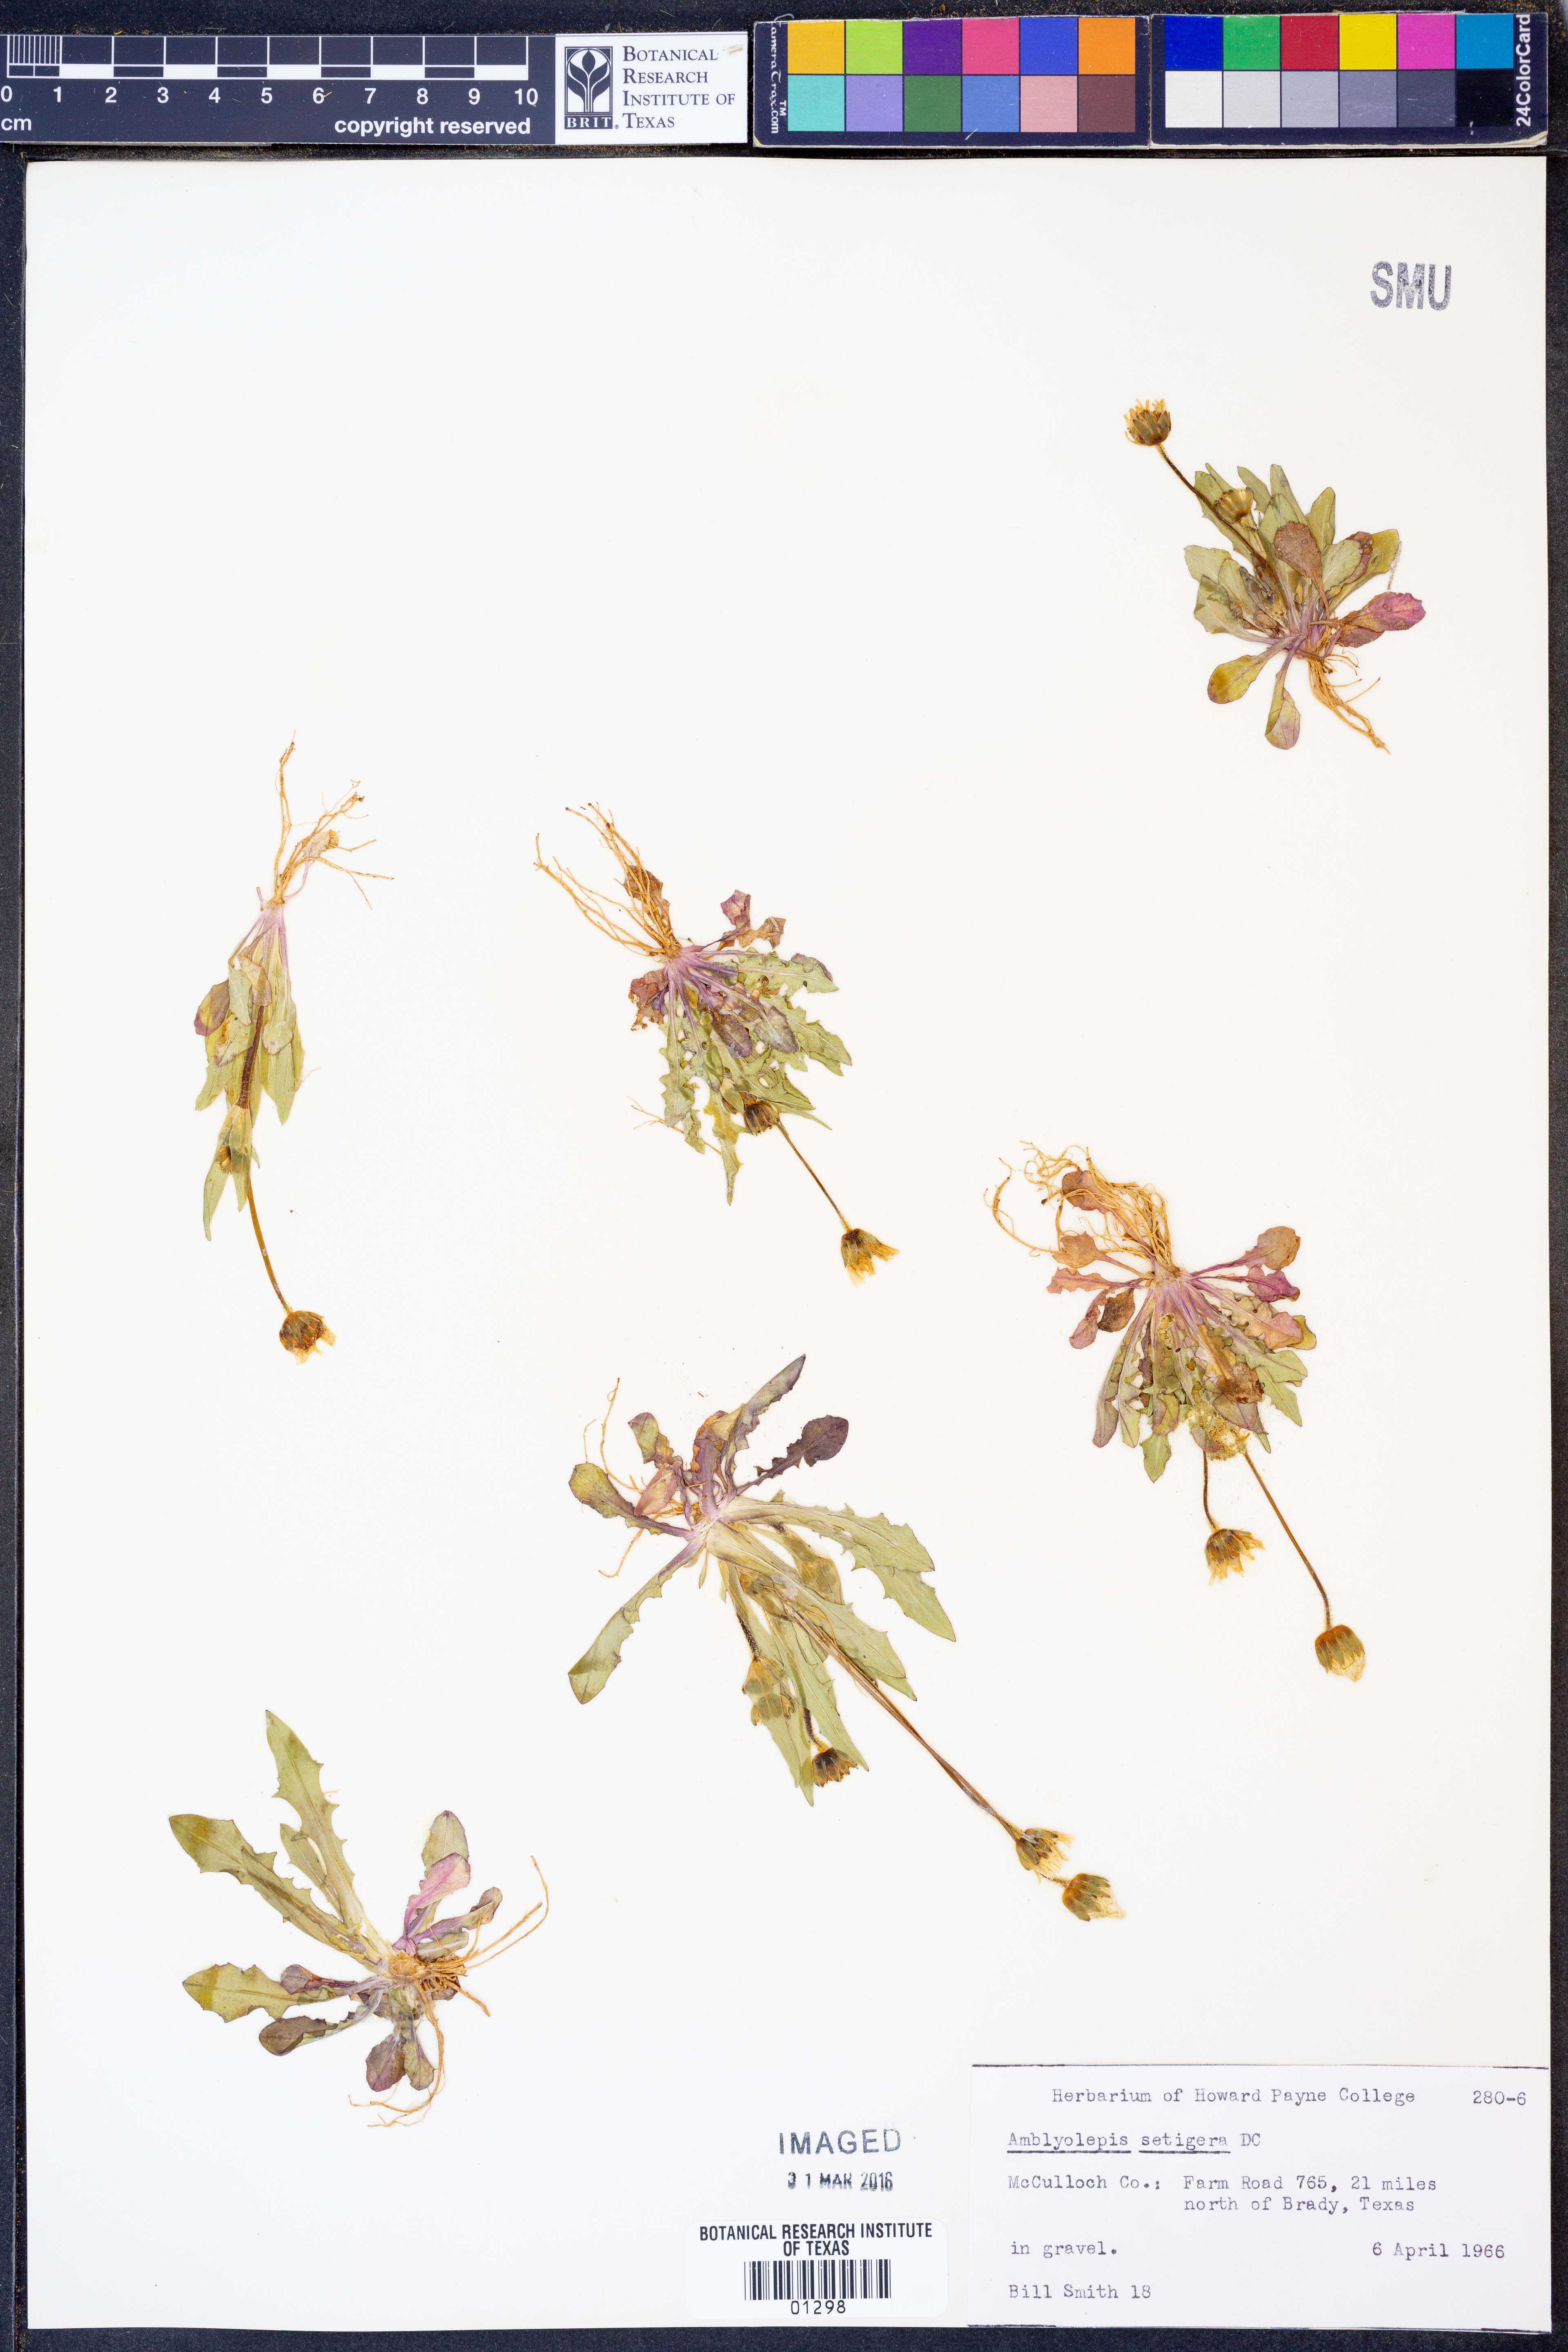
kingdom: Plantae
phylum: Tracheophyta
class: Magnoliopsida
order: Asterales
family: Asteraceae
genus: Amblyolepis
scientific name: Amblyolepis setigera
